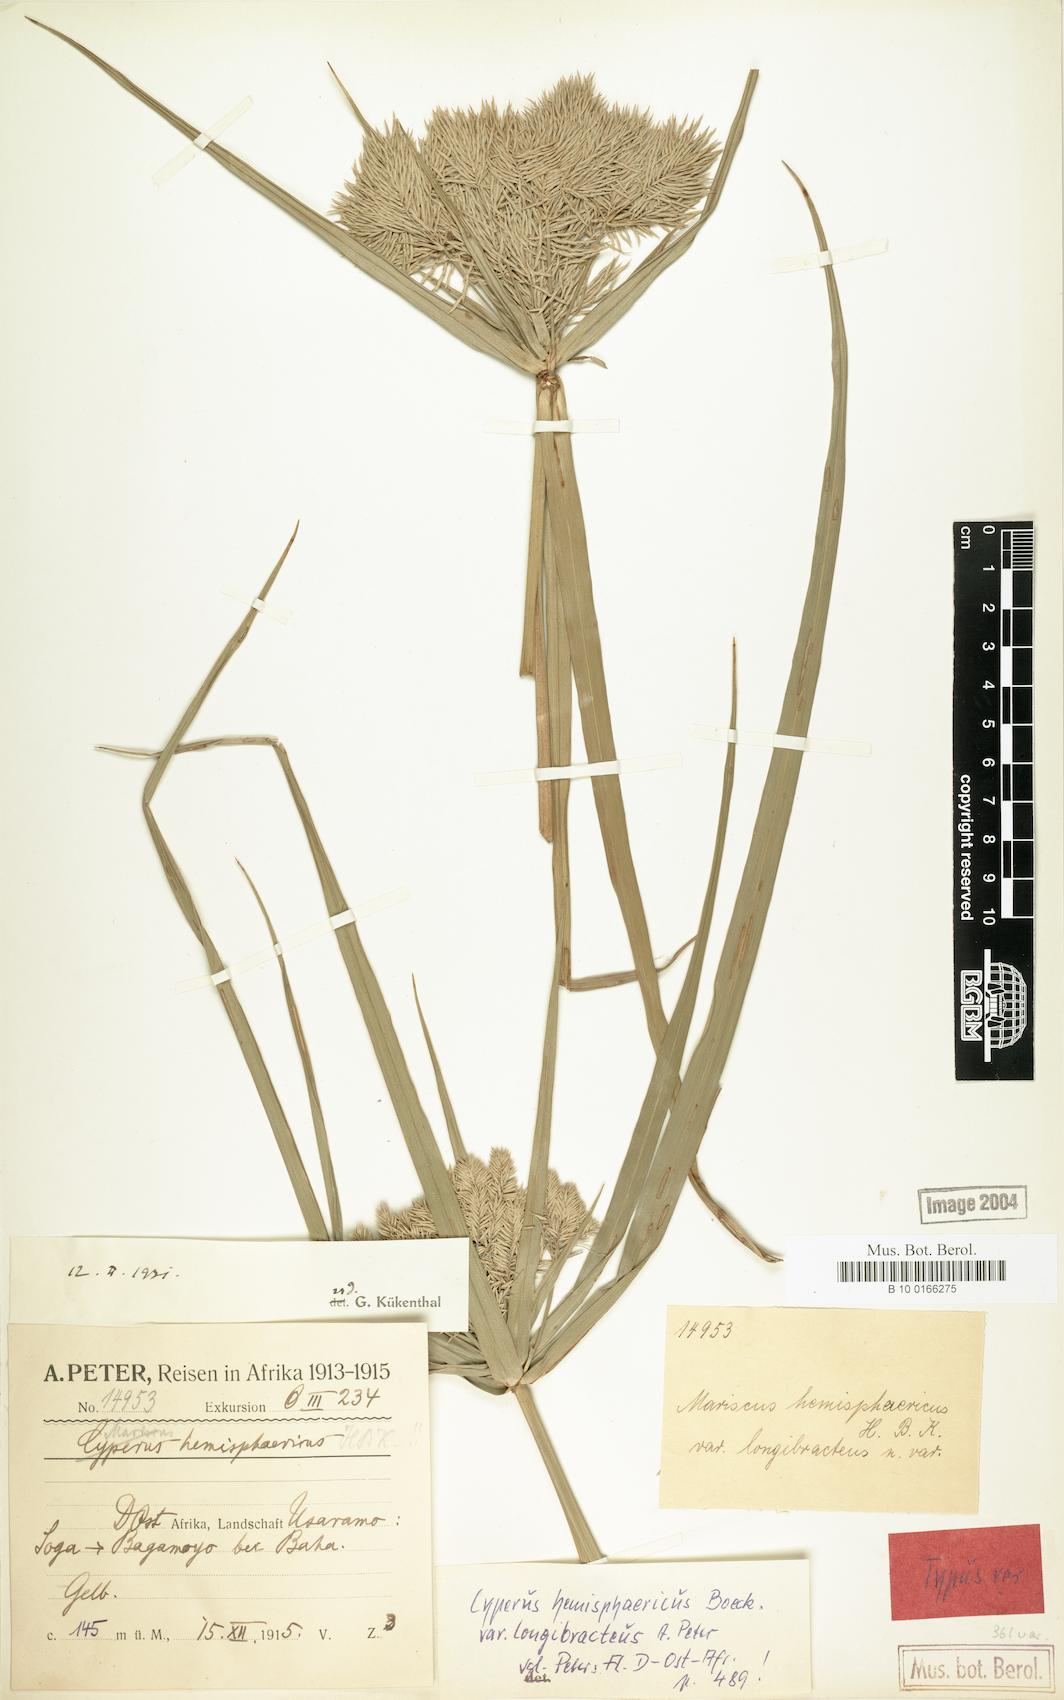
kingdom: Plantae
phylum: Tracheophyta
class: Liliopsida
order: Poales
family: Cyperaceae
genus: Cyperus
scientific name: Cyperus hemisphaericus
